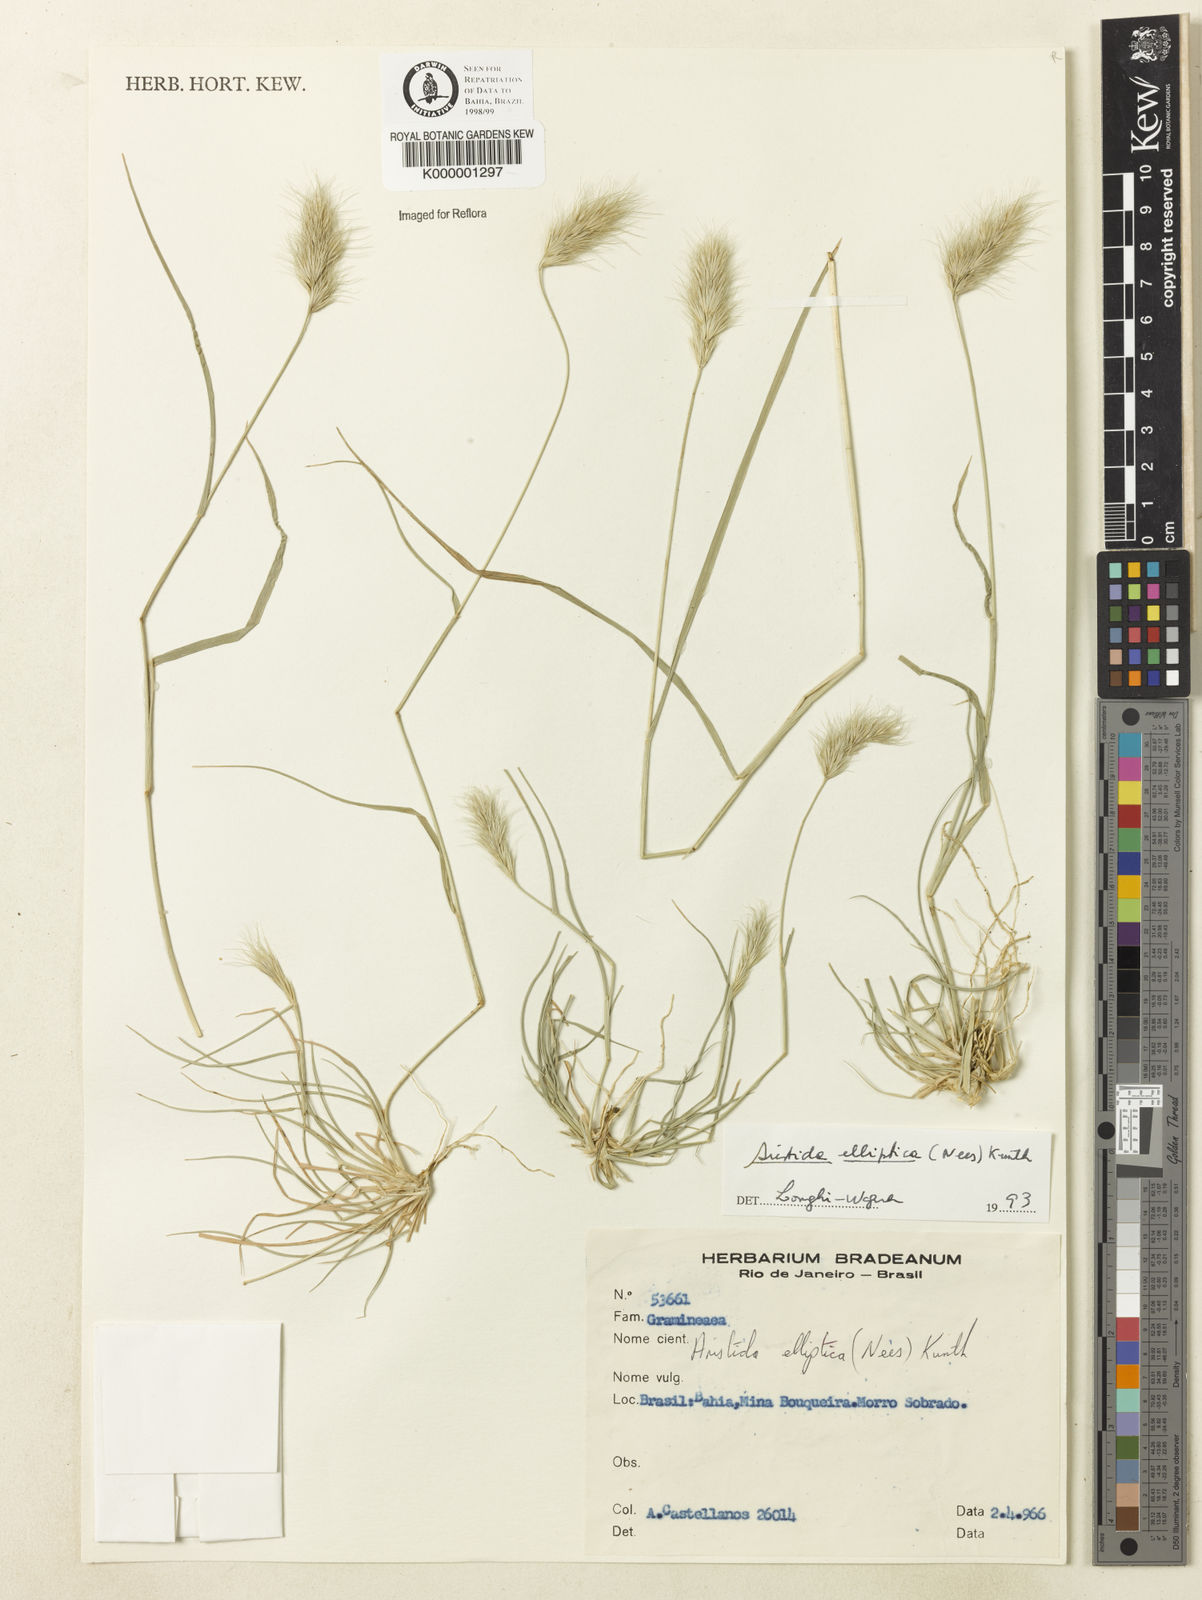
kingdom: Plantae
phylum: Tracheophyta
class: Liliopsida
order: Poales
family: Poaceae
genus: Aristida
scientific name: Aristida elliptica
